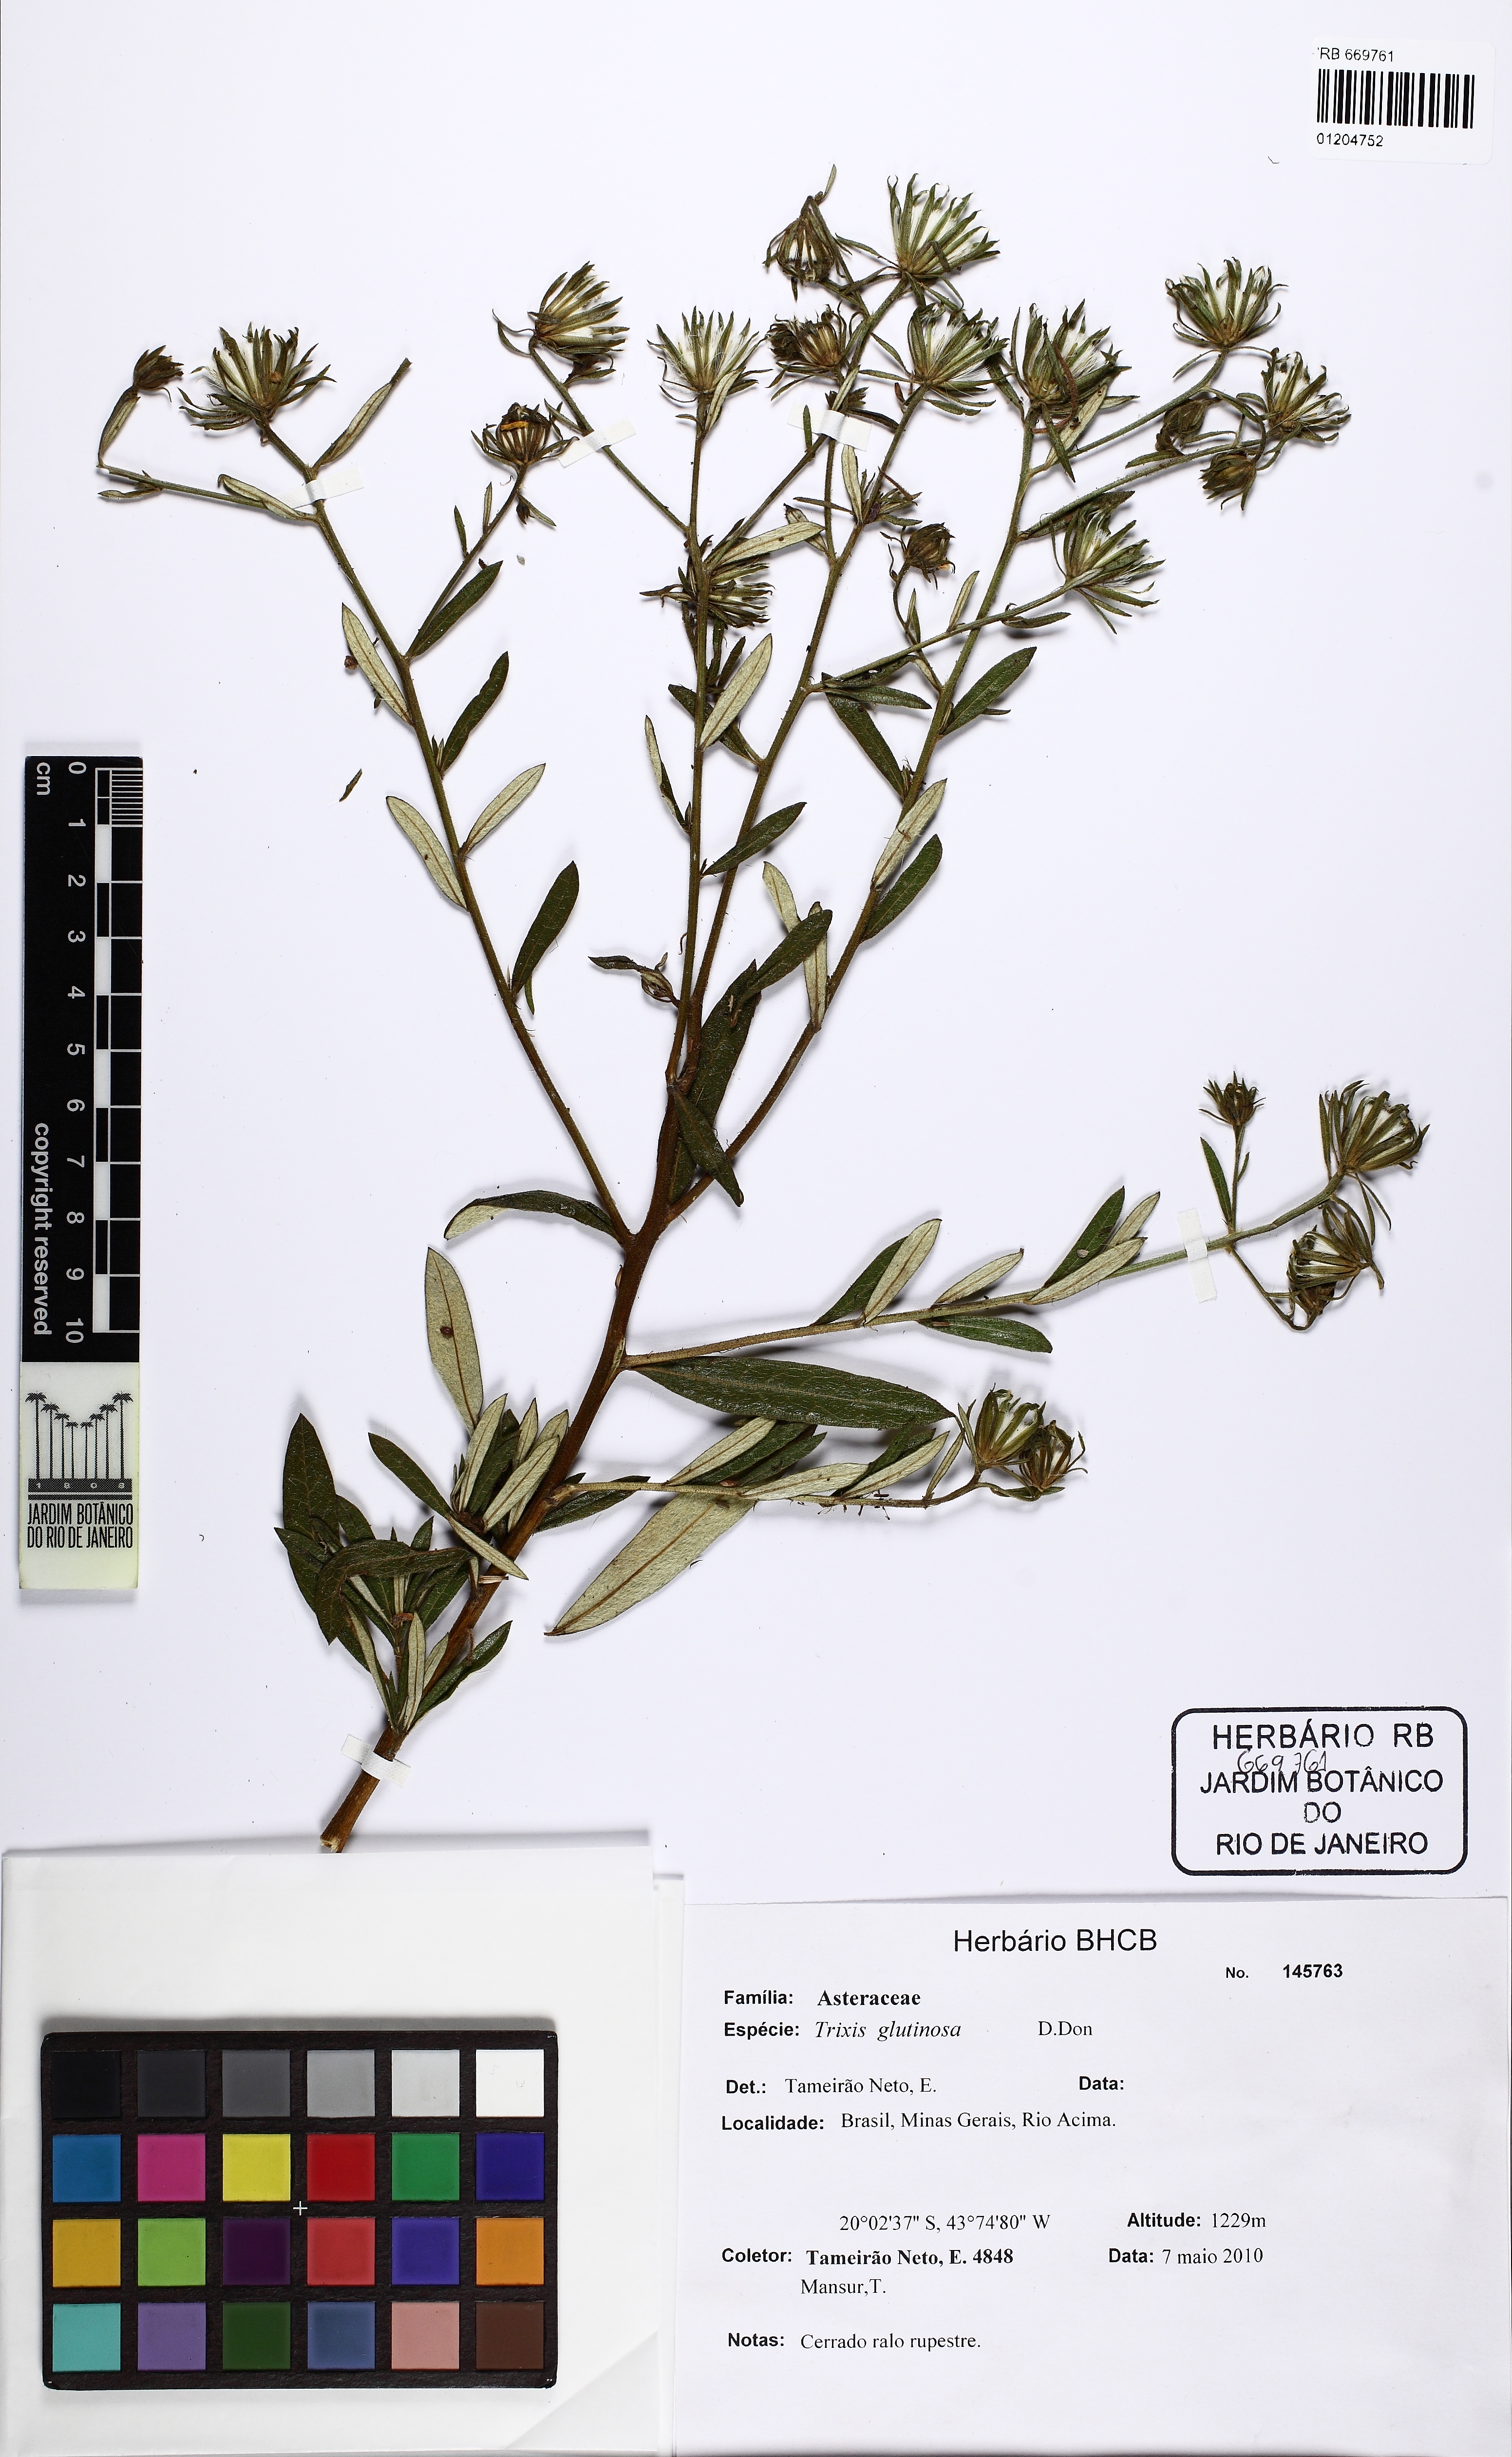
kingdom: Plantae
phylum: Tracheophyta
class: Magnoliopsida
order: Asterales
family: Asteraceae
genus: Trixis
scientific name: Trixis glutinosa
